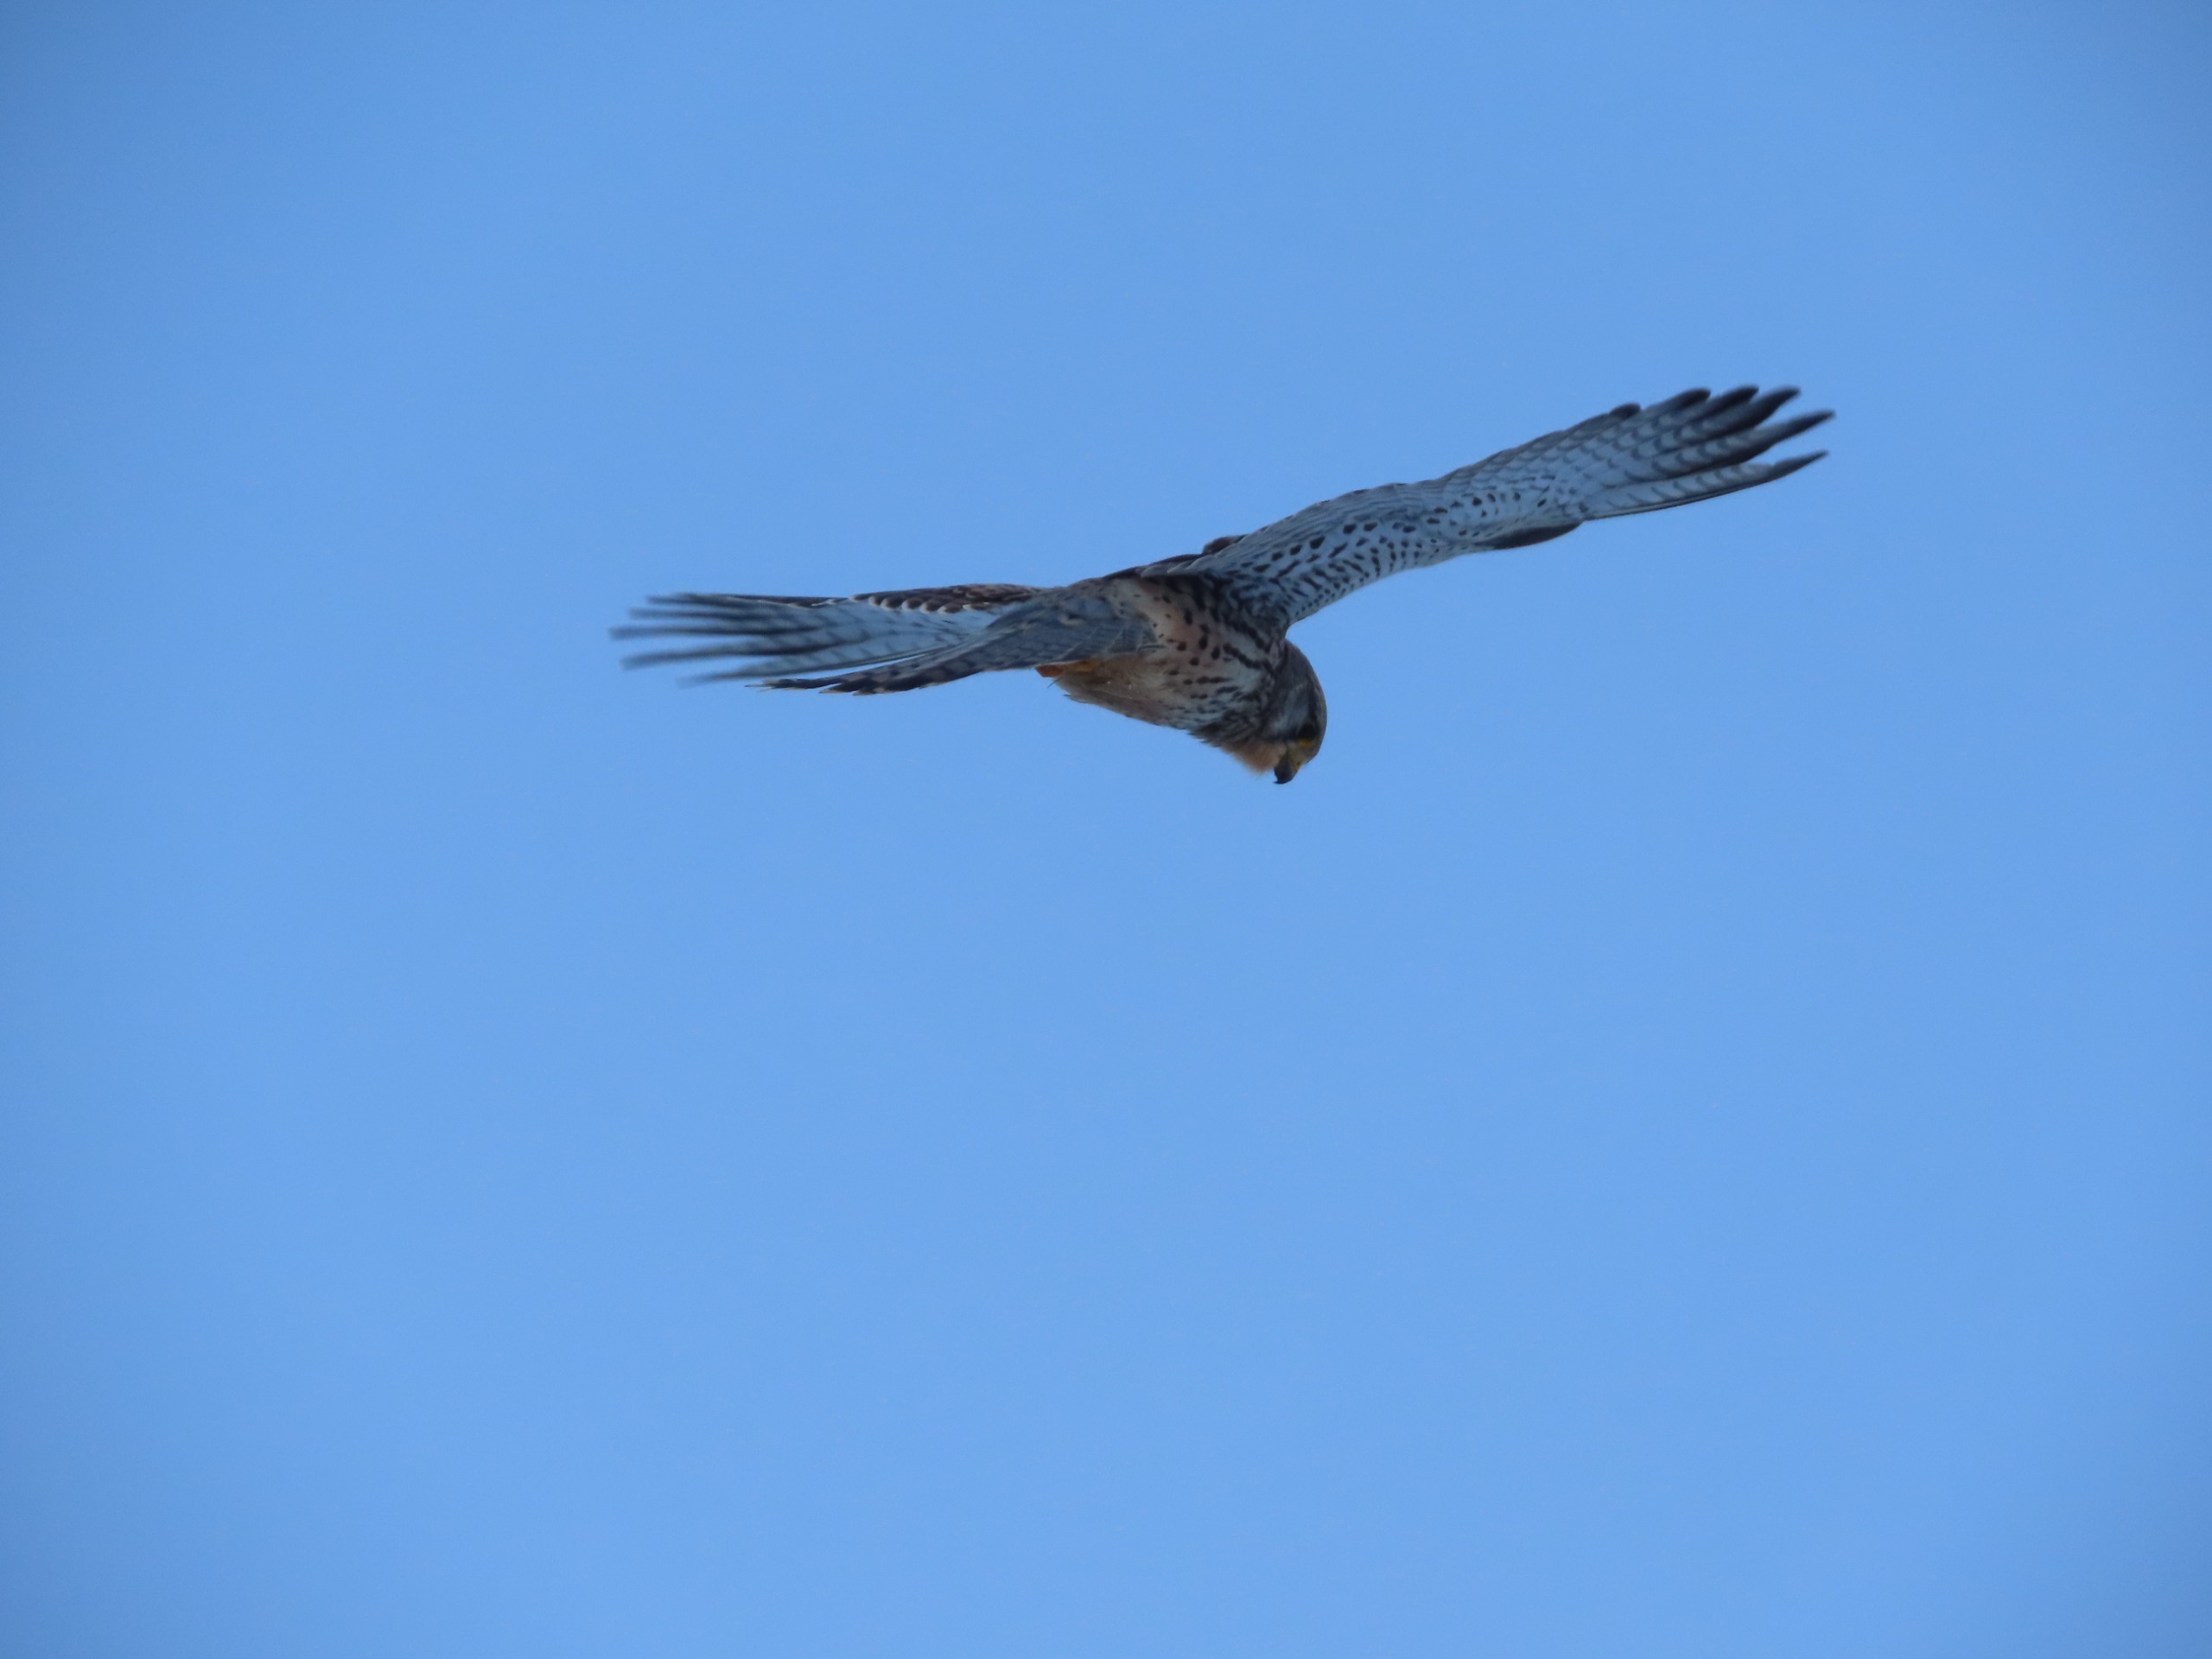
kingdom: Animalia
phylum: Chordata
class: Aves
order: Falconiformes
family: Falconidae
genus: Falco
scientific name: Falco tinnunculus
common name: Tårnfalk
